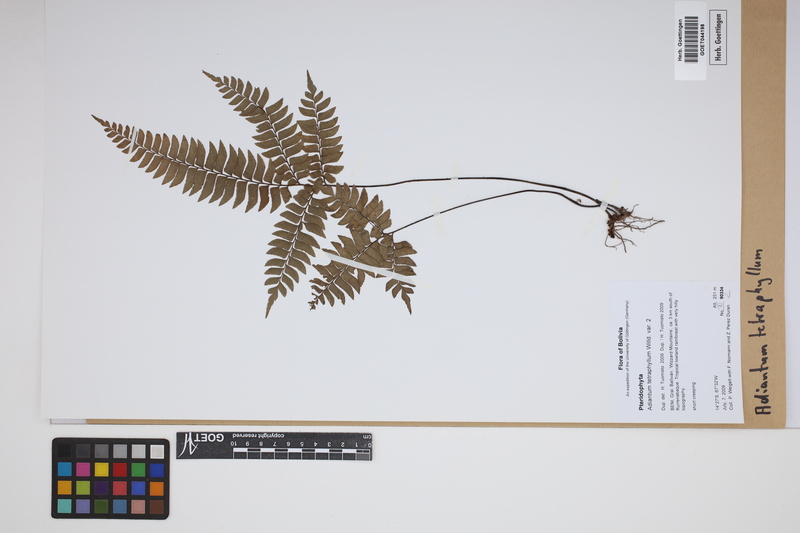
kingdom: Plantae
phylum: Tracheophyta
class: Polypodiopsida
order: Polypodiales
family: Pteridaceae
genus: Adiantum
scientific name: Adiantum tetraphyllum
